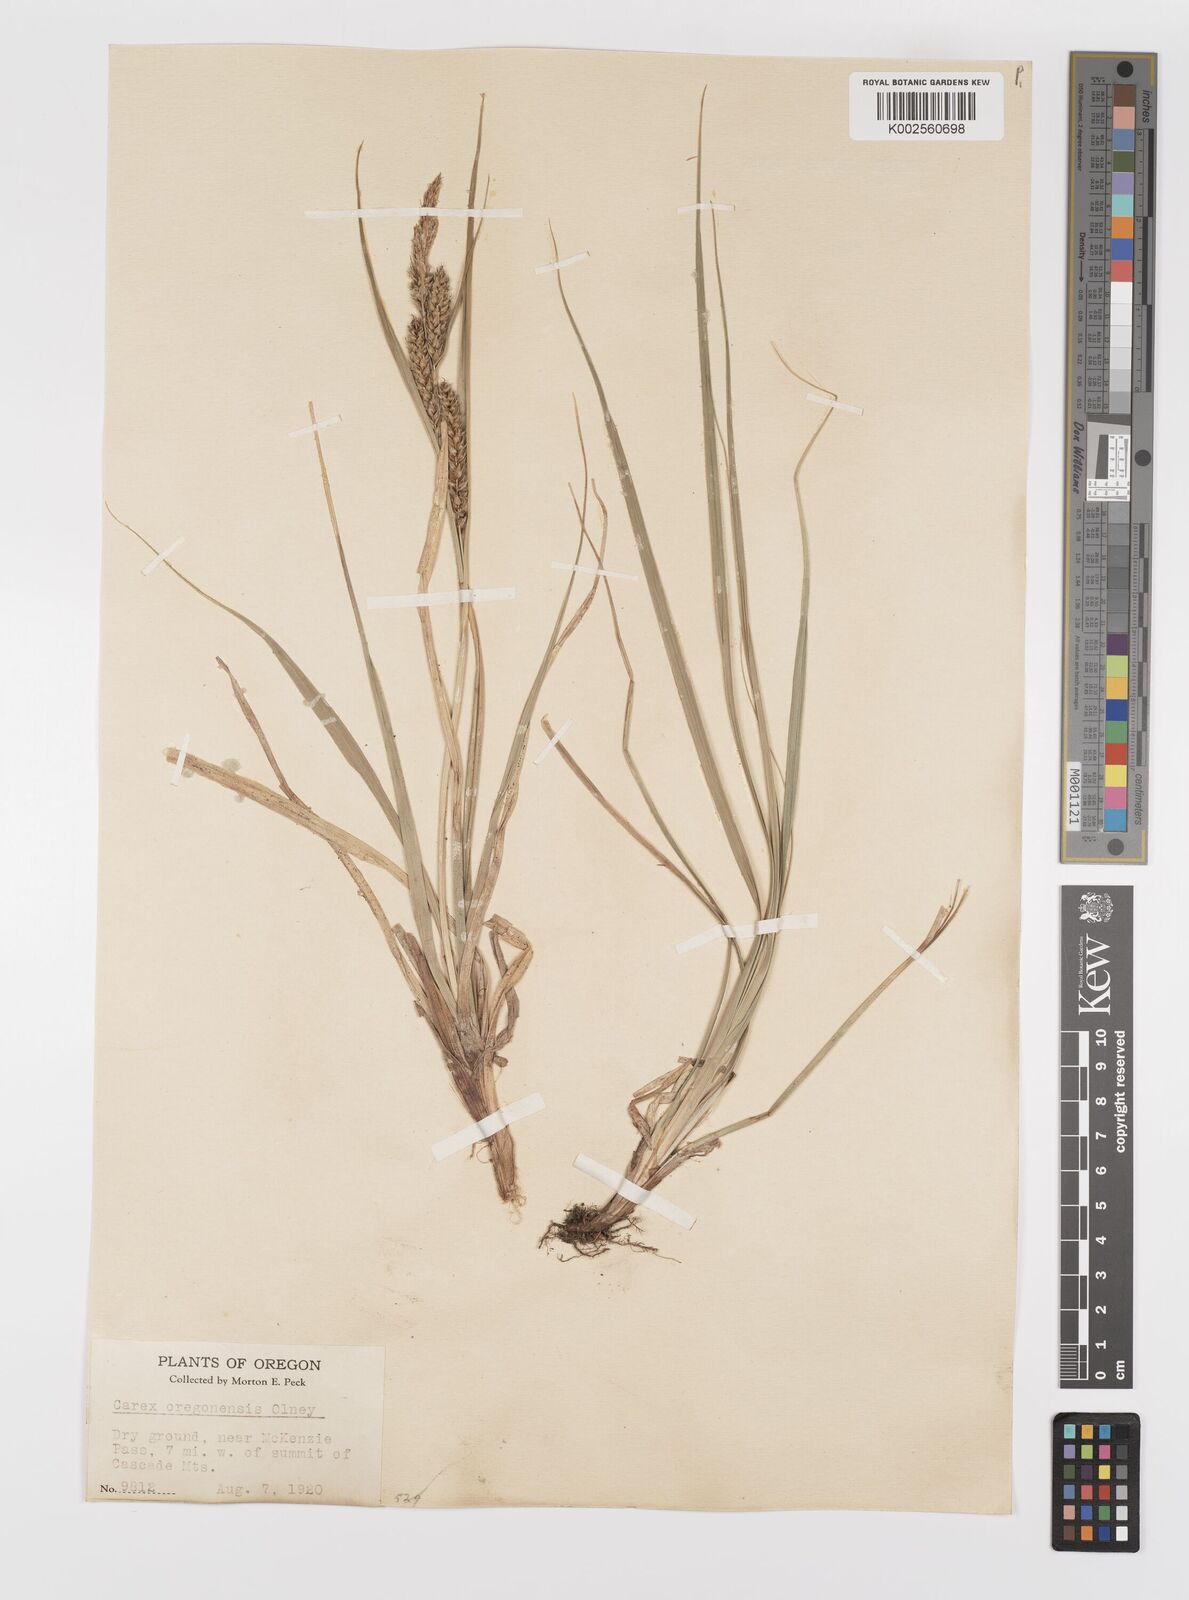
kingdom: Plantae
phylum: Tracheophyta
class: Liliopsida
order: Poales
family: Cyperaceae
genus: Carex
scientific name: Carex halliana
